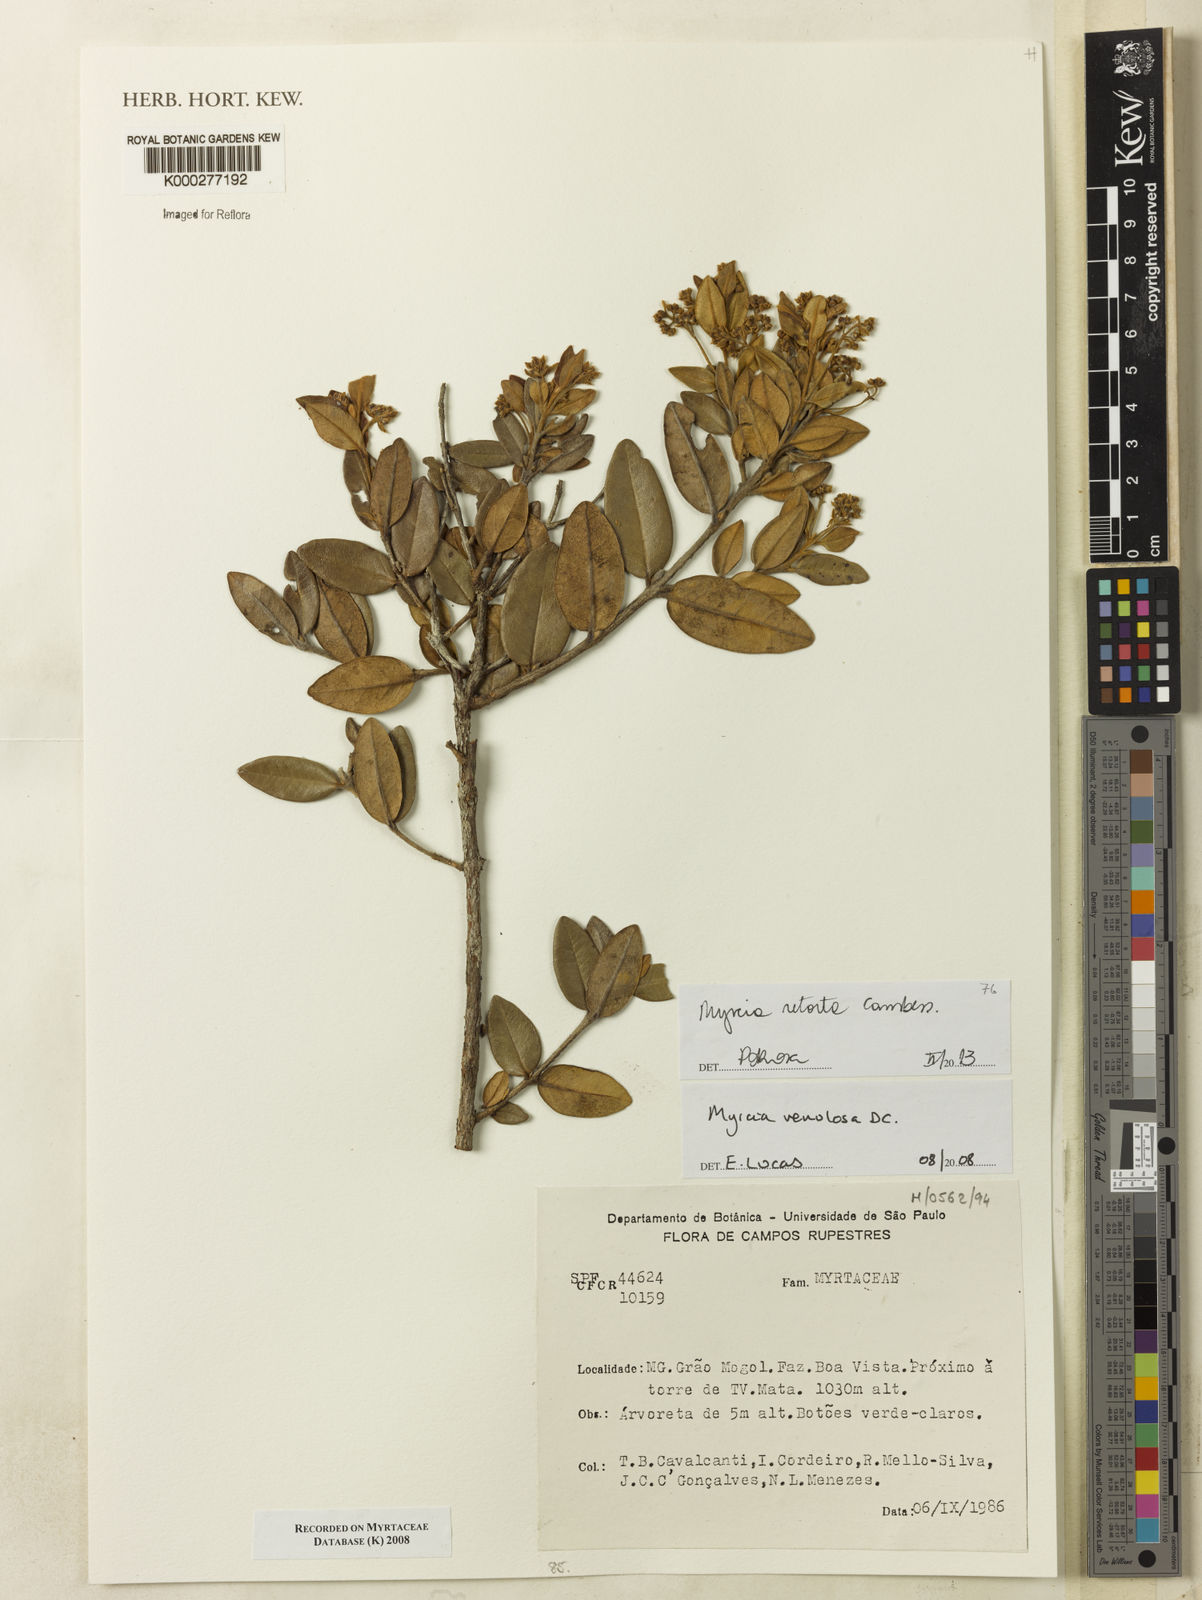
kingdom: Plantae
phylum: Tracheophyta
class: Magnoliopsida
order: Myrtales
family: Myrtaceae
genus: Myrcia
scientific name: Myrcia venulosa
